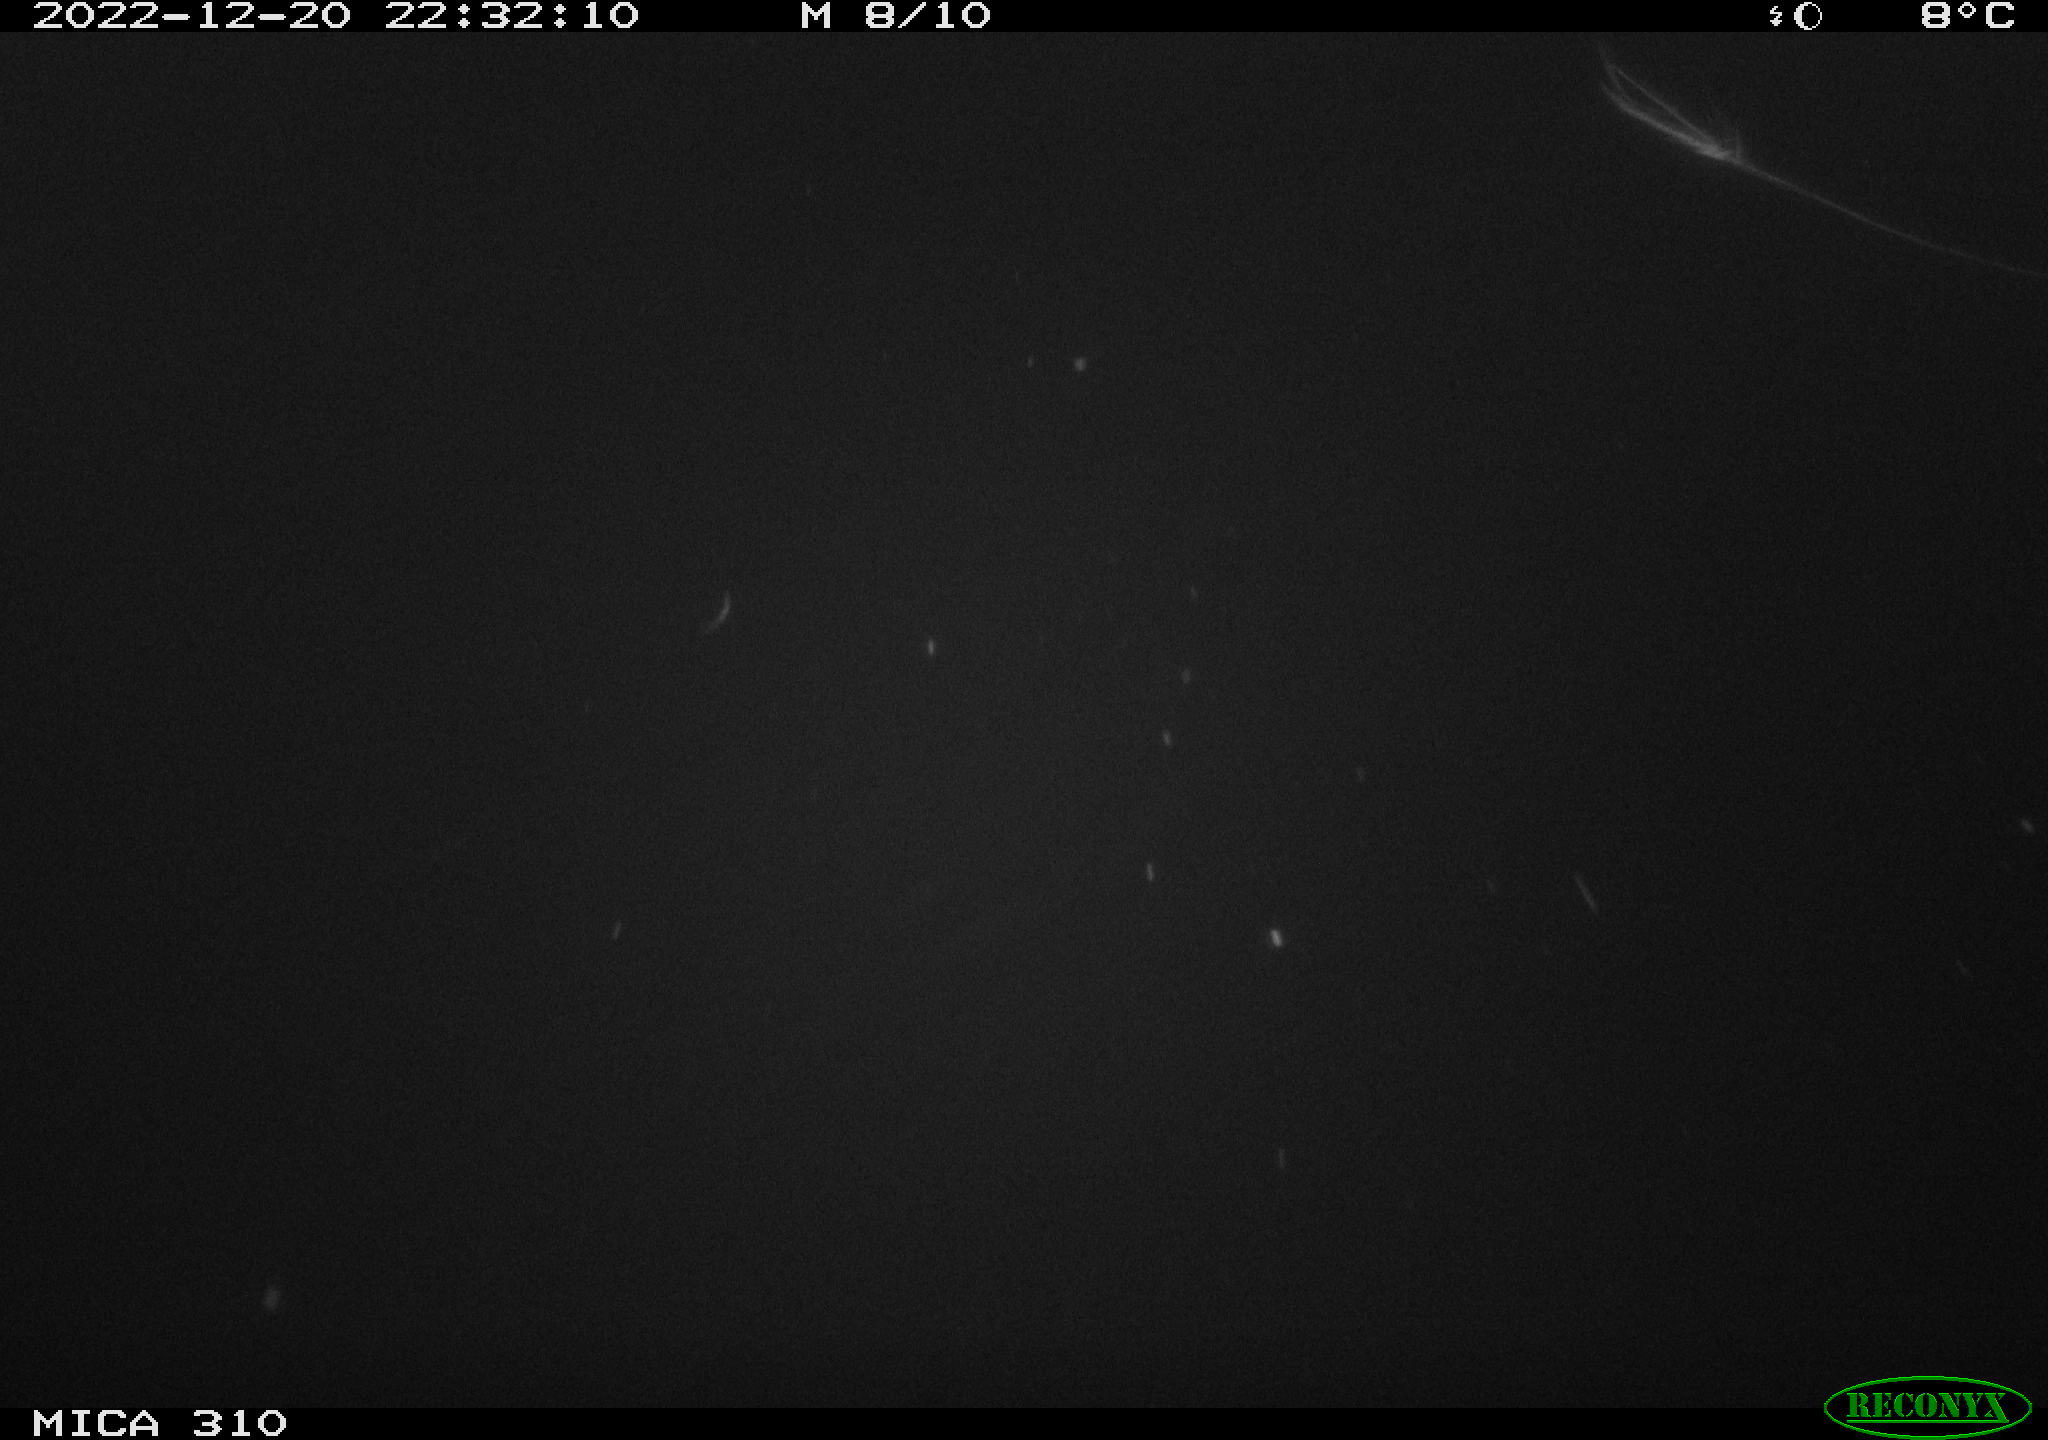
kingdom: Animalia
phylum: Chordata
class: Mammalia
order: Rodentia
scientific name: Rodentia
